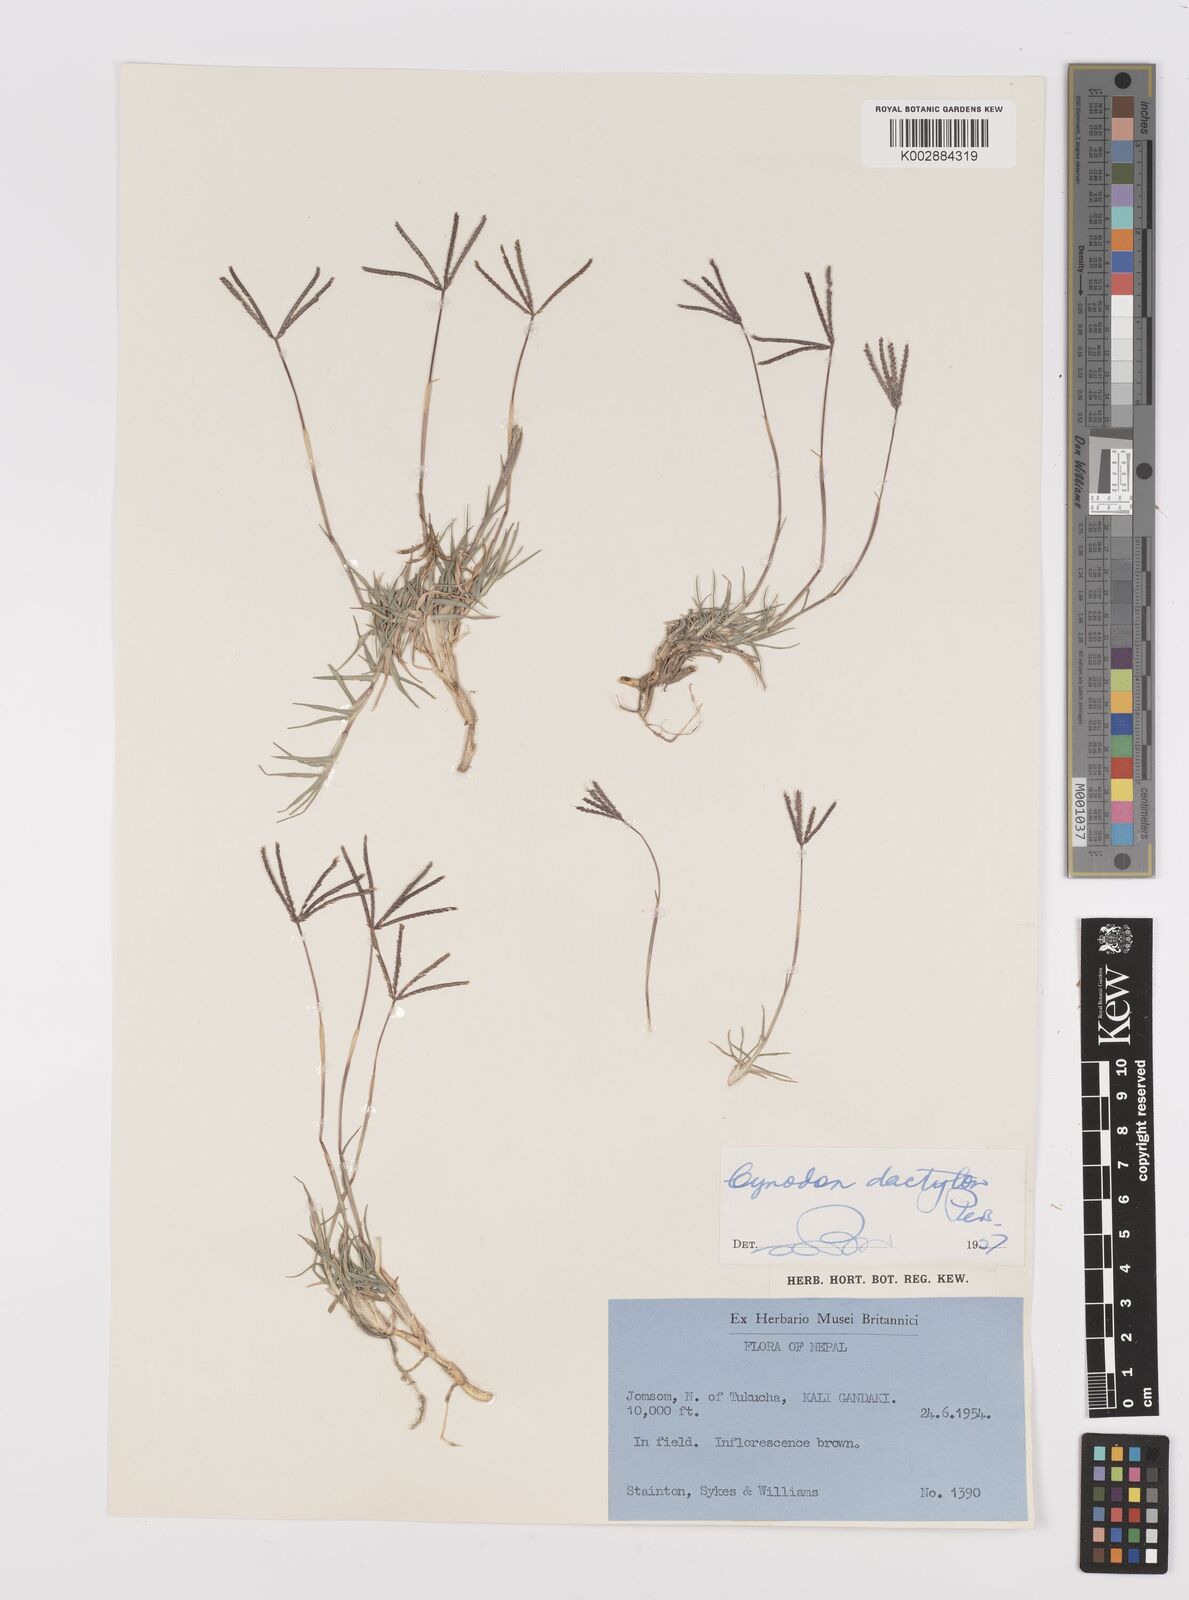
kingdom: Plantae
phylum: Tracheophyta
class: Liliopsida
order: Poales
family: Poaceae
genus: Cynodon
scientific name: Cynodon dactylon
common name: Bermuda grass
